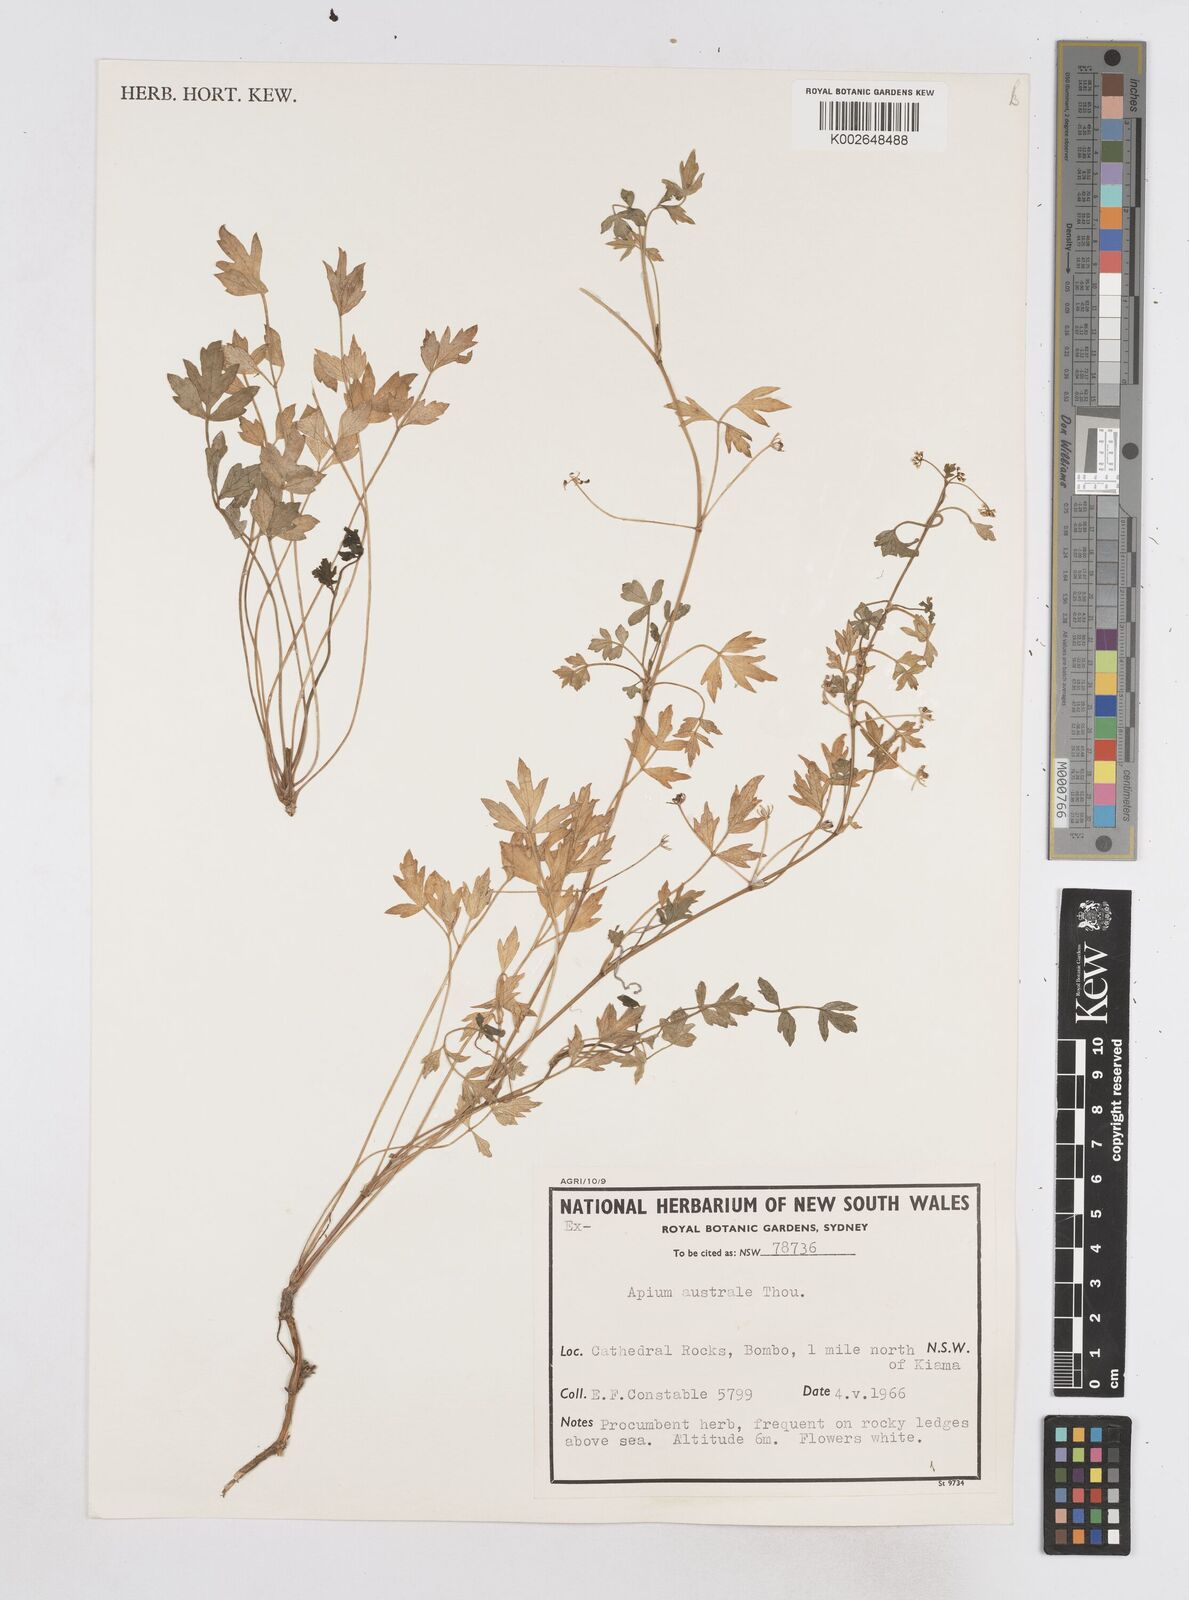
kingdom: Plantae
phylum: Tracheophyta
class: Magnoliopsida
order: Apiales
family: Apiaceae
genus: Apium
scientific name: Apium prostratum
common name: Prostrate marshwort
